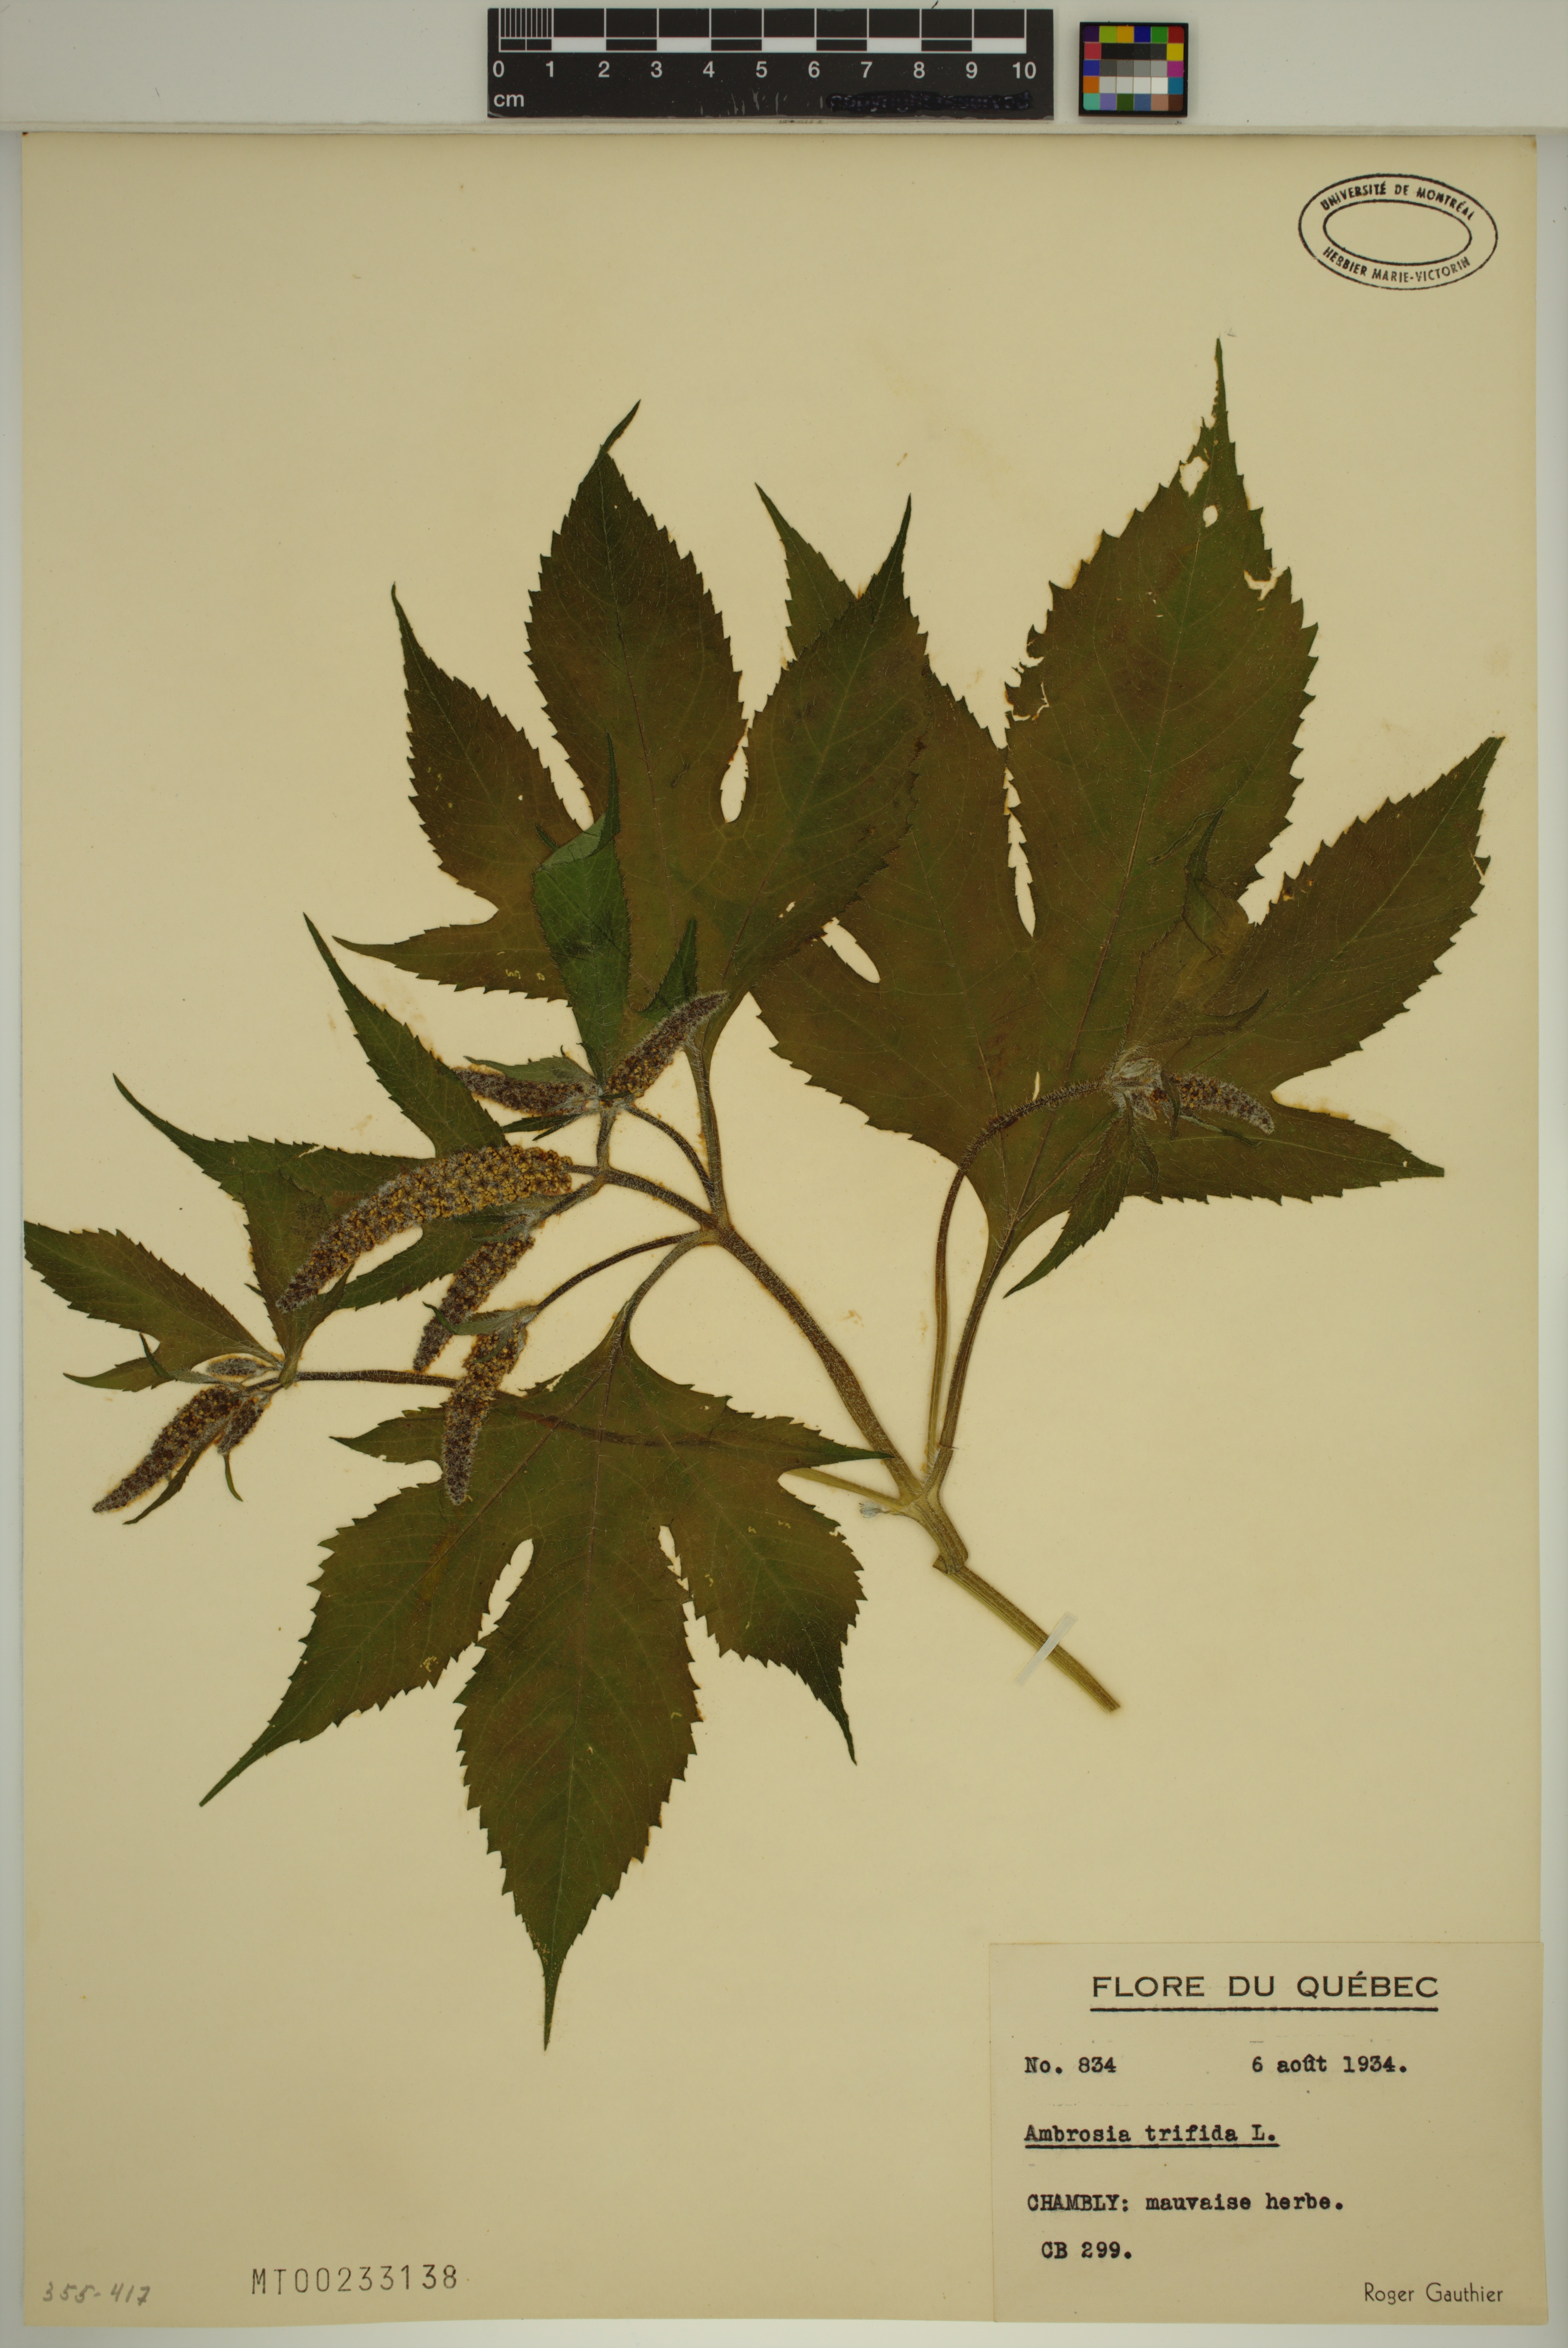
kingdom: Plantae
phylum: Tracheophyta
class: Magnoliopsida
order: Asterales
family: Asteraceae
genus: Ambrosia
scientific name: Ambrosia trifida
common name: Giant ragweed
